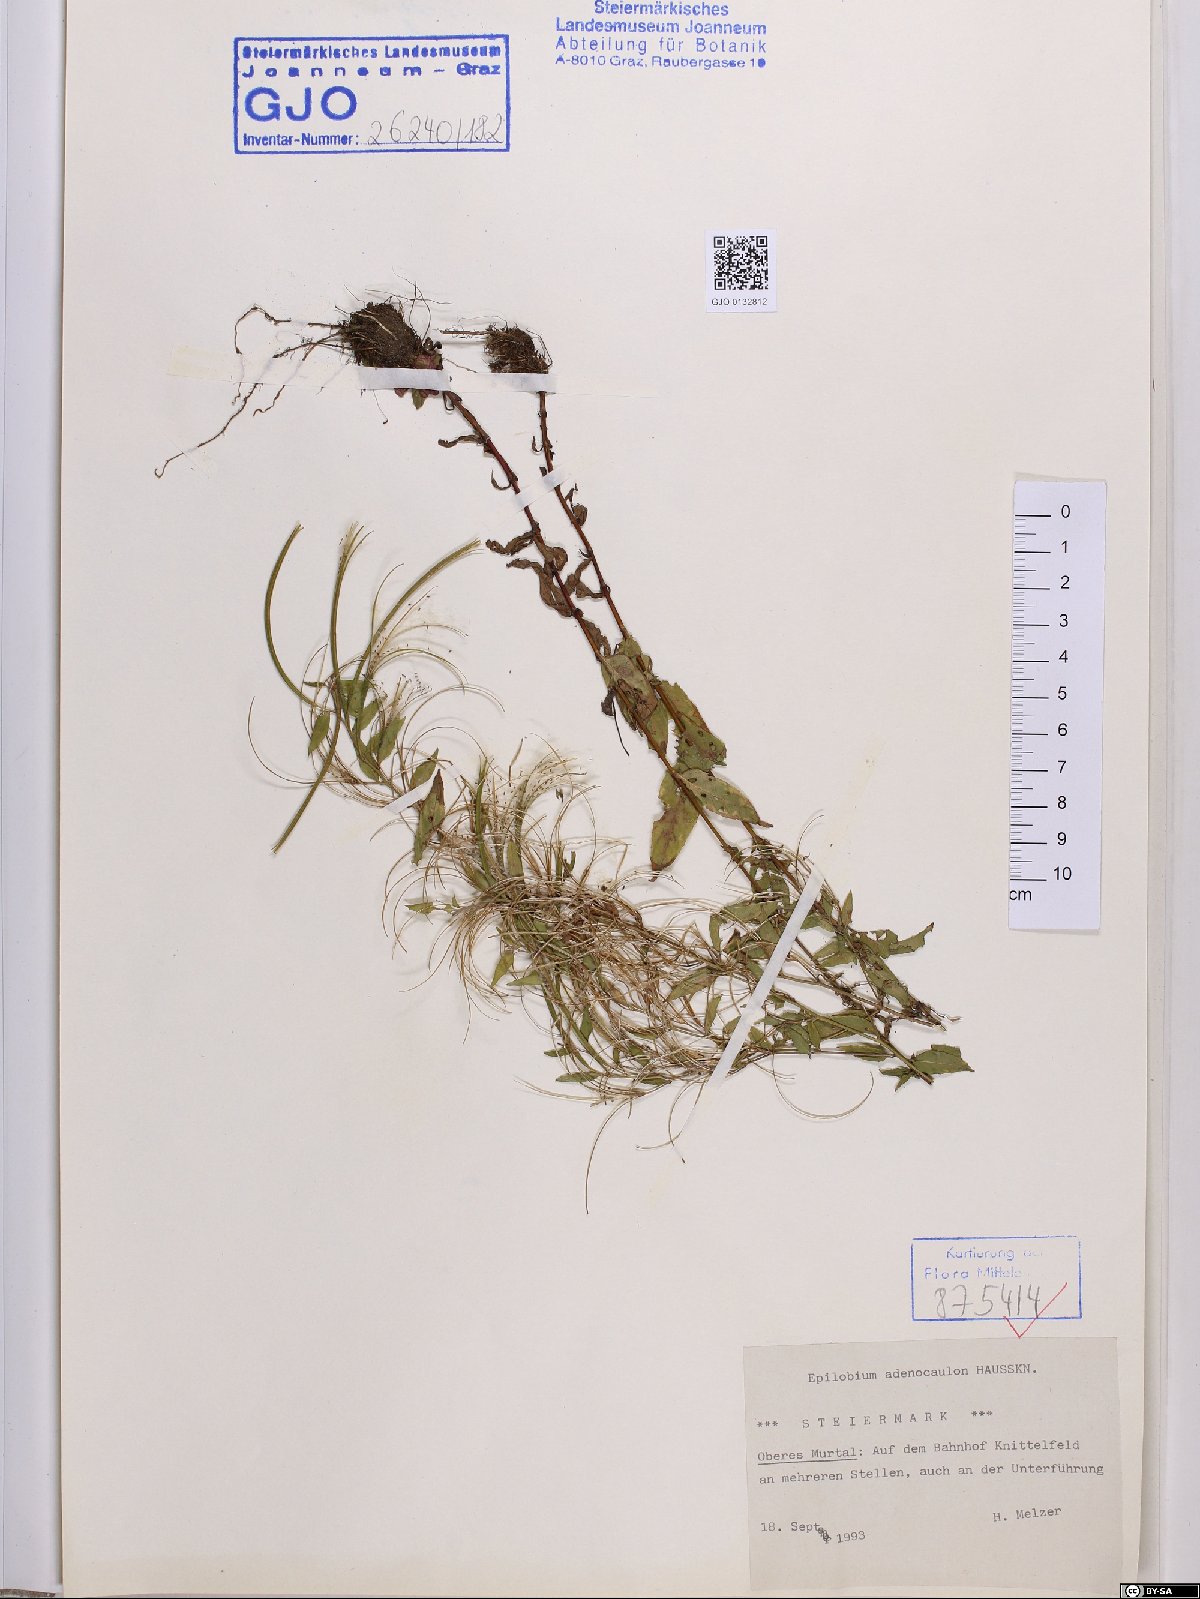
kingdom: Plantae
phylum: Tracheophyta
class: Magnoliopsida
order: Myrtales
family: Onagraceae
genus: Epilobium
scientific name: Epilobium ciliatum
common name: American willowherb
